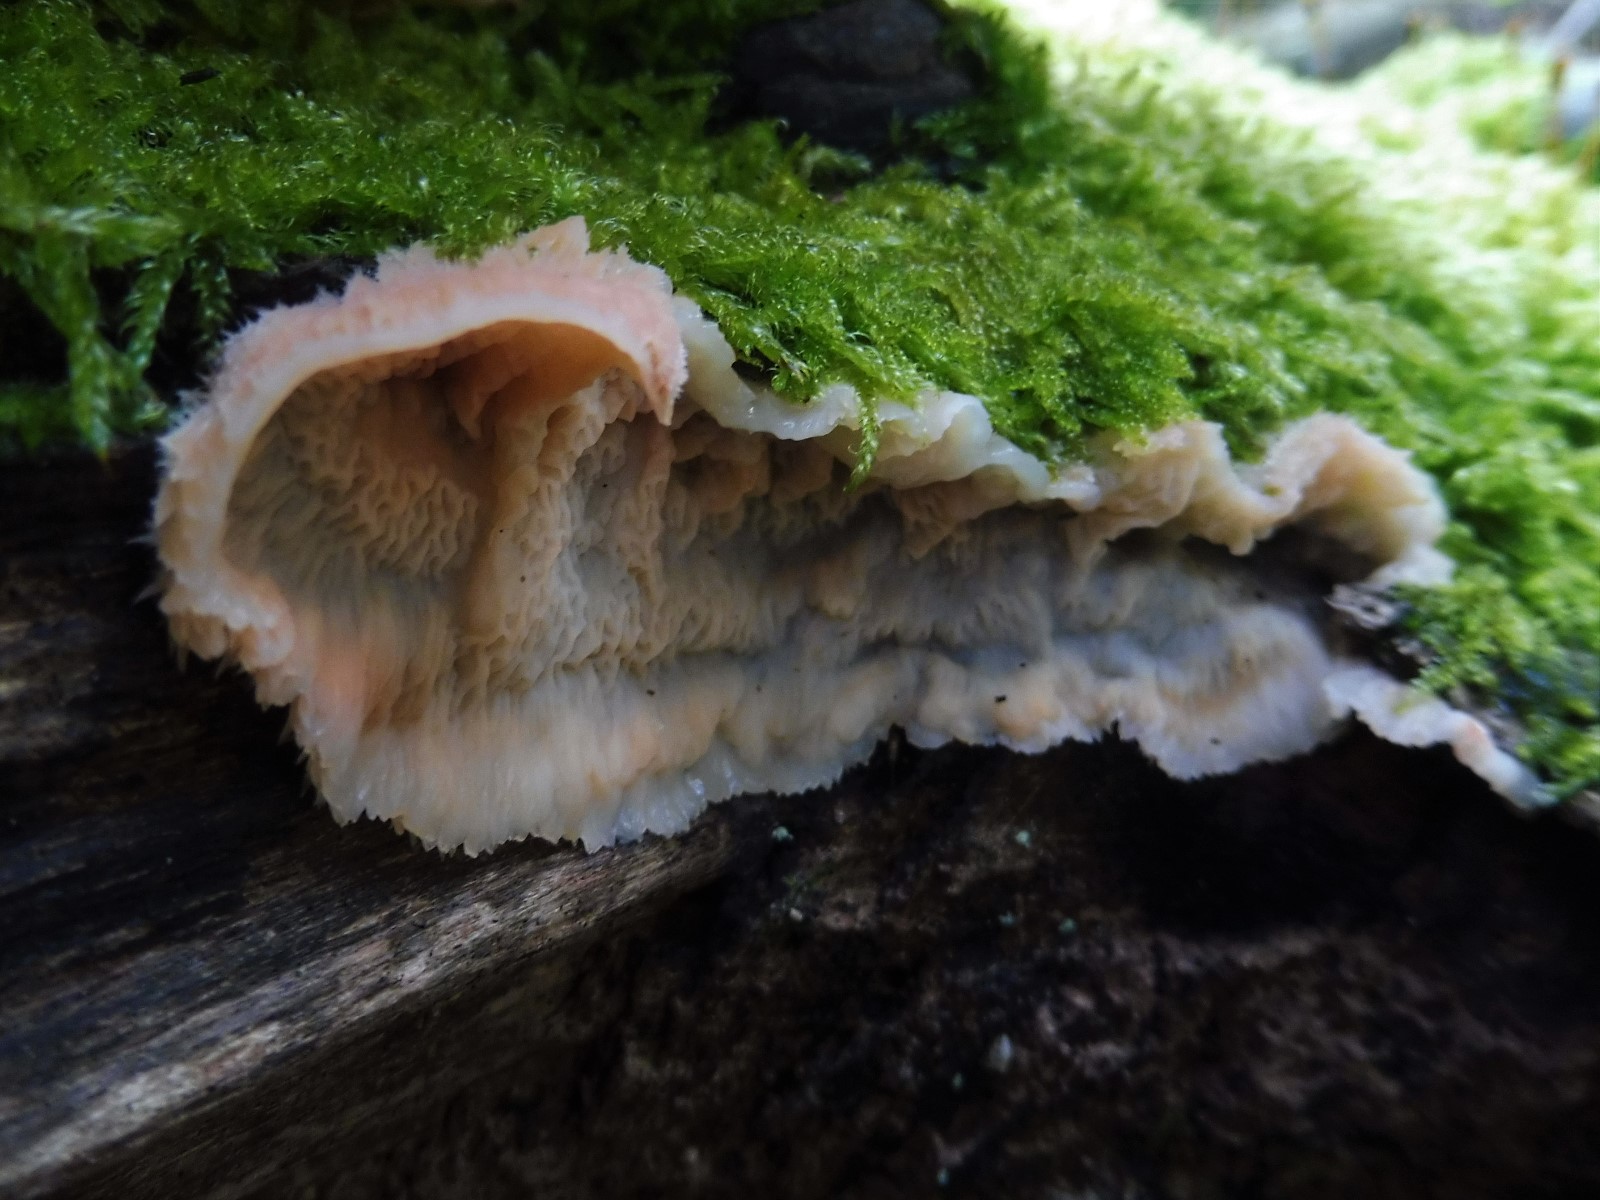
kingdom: Fungi
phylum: Basidiomycota
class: Agaricomycetes
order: Polyporales
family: Meruliaceae
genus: Phlebia
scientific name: Phlebia tremellosa
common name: bævrende åresvamp
